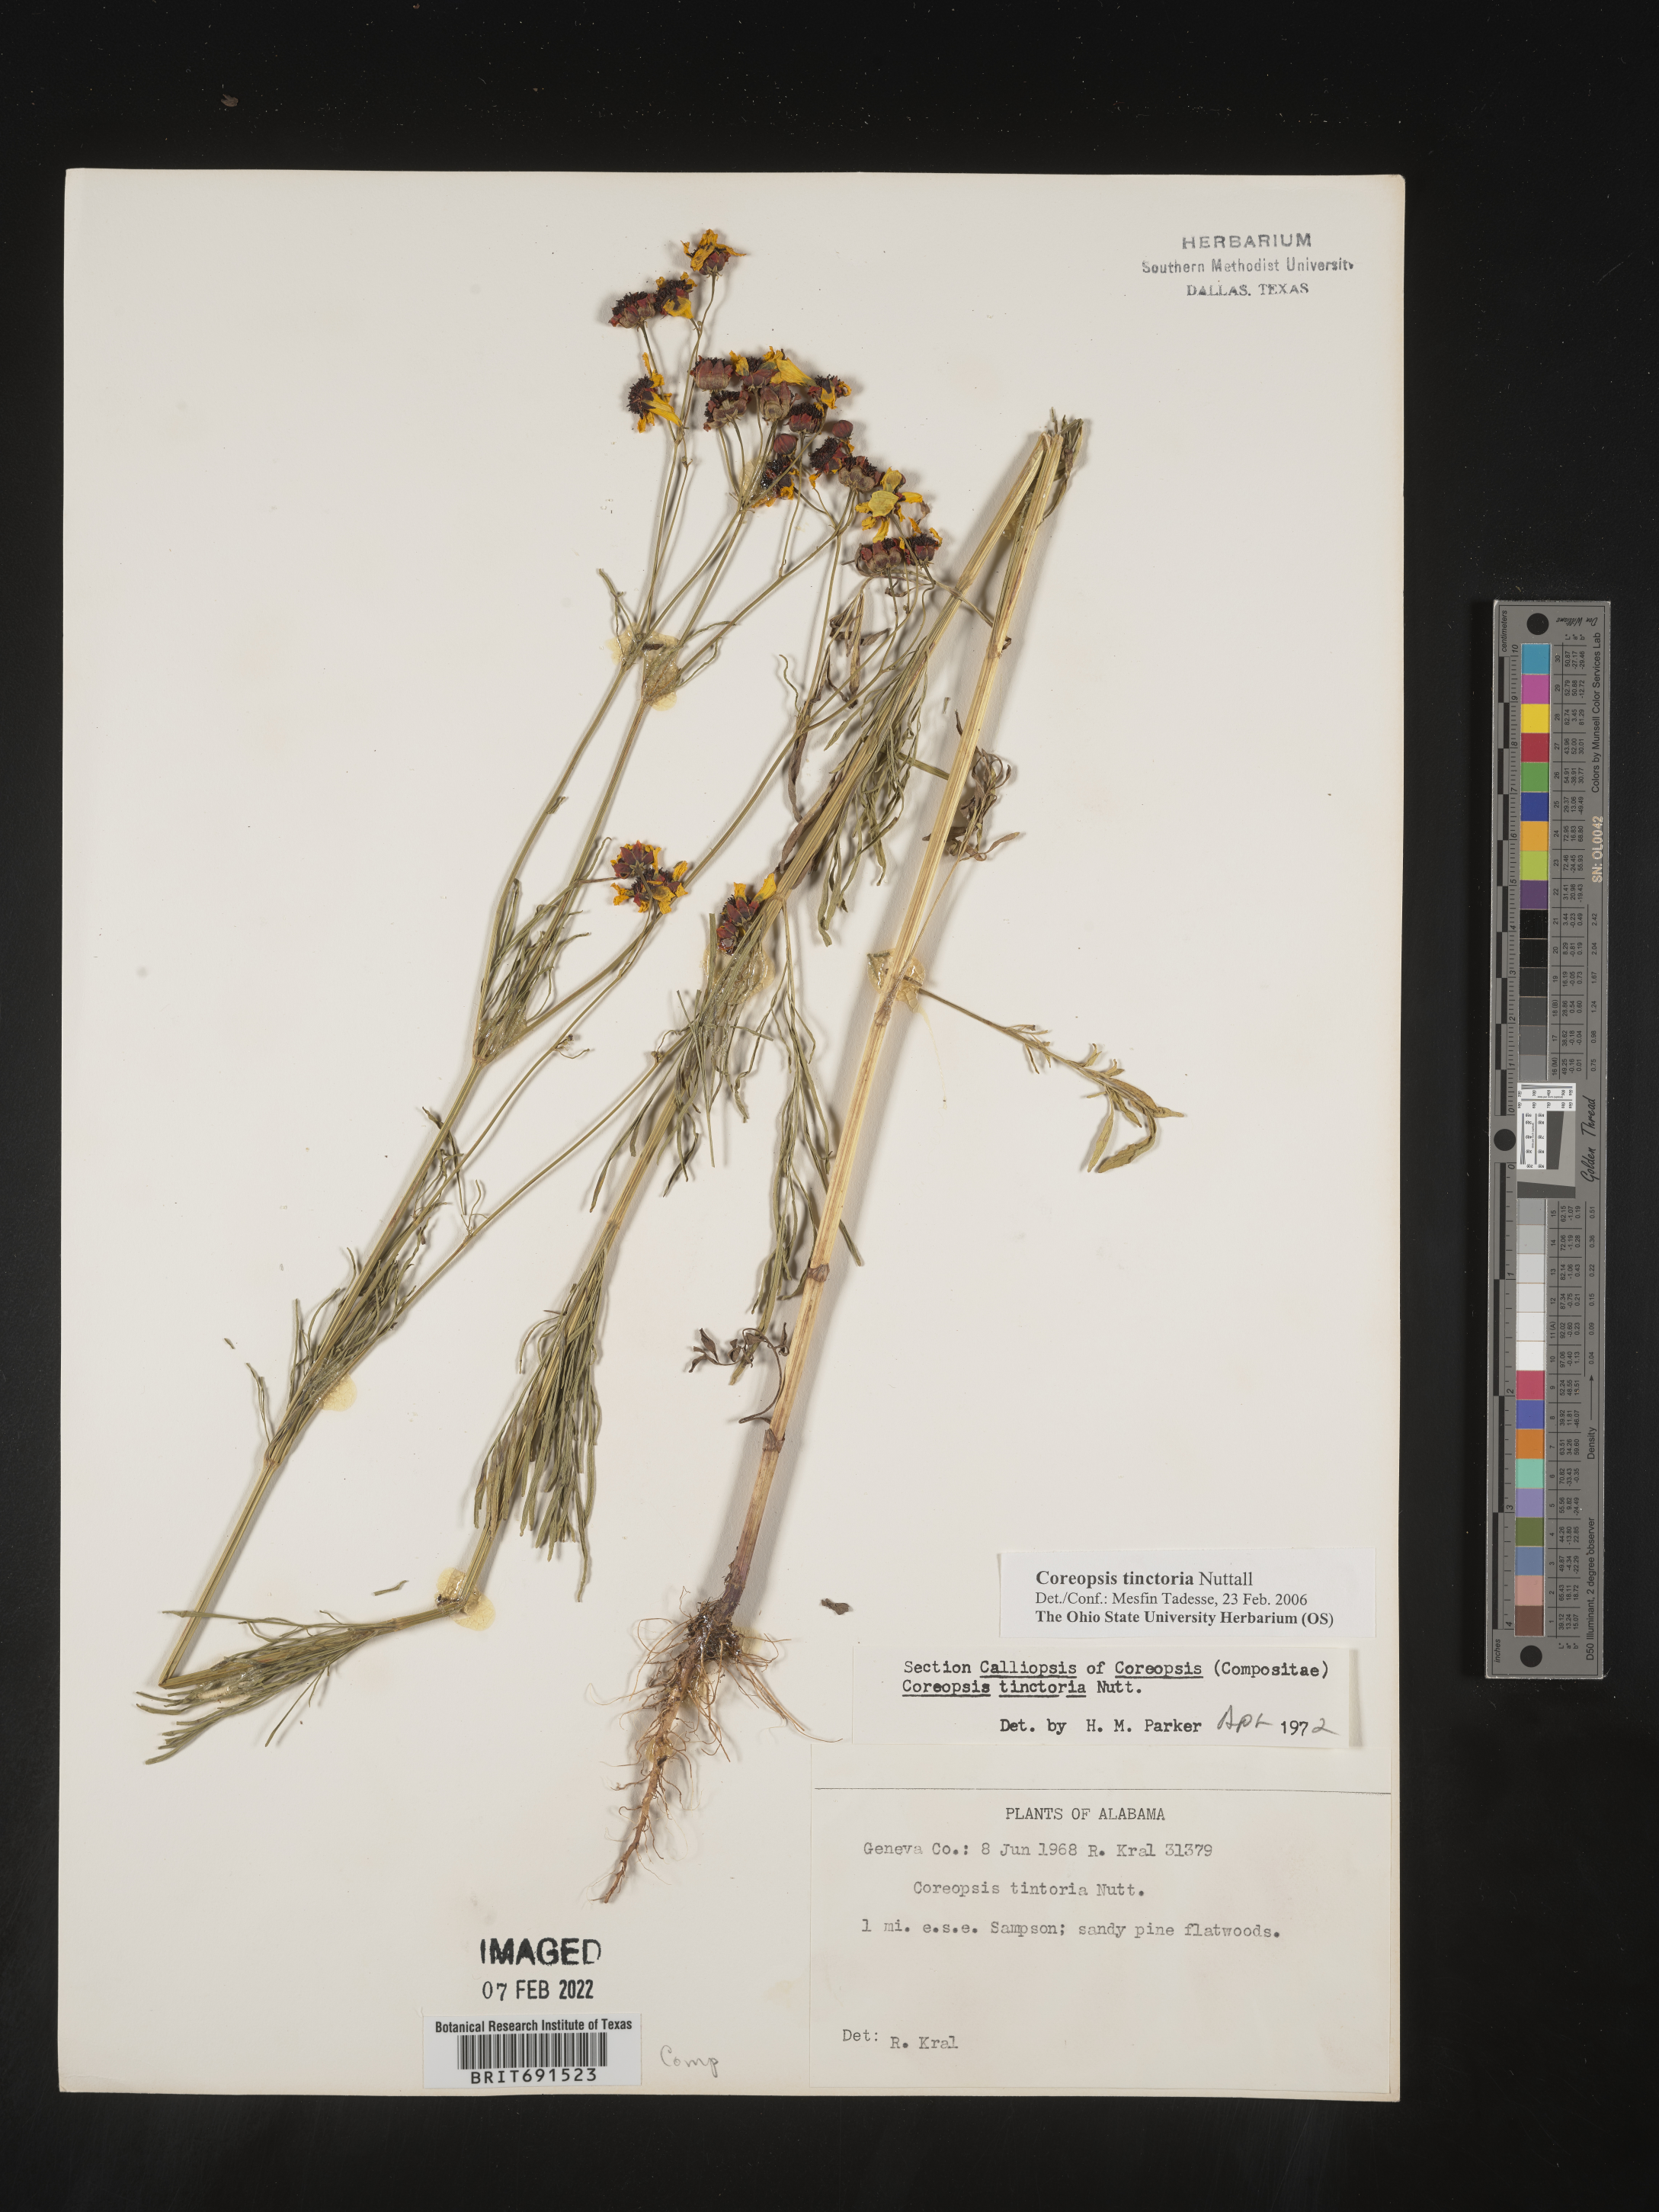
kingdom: Plantae
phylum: Tracheophyta
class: Magnoliopsida
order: Asterales
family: Asteraceae
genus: Coreopsis
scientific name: Coreopsis tinctoria
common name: Garden tickseed
